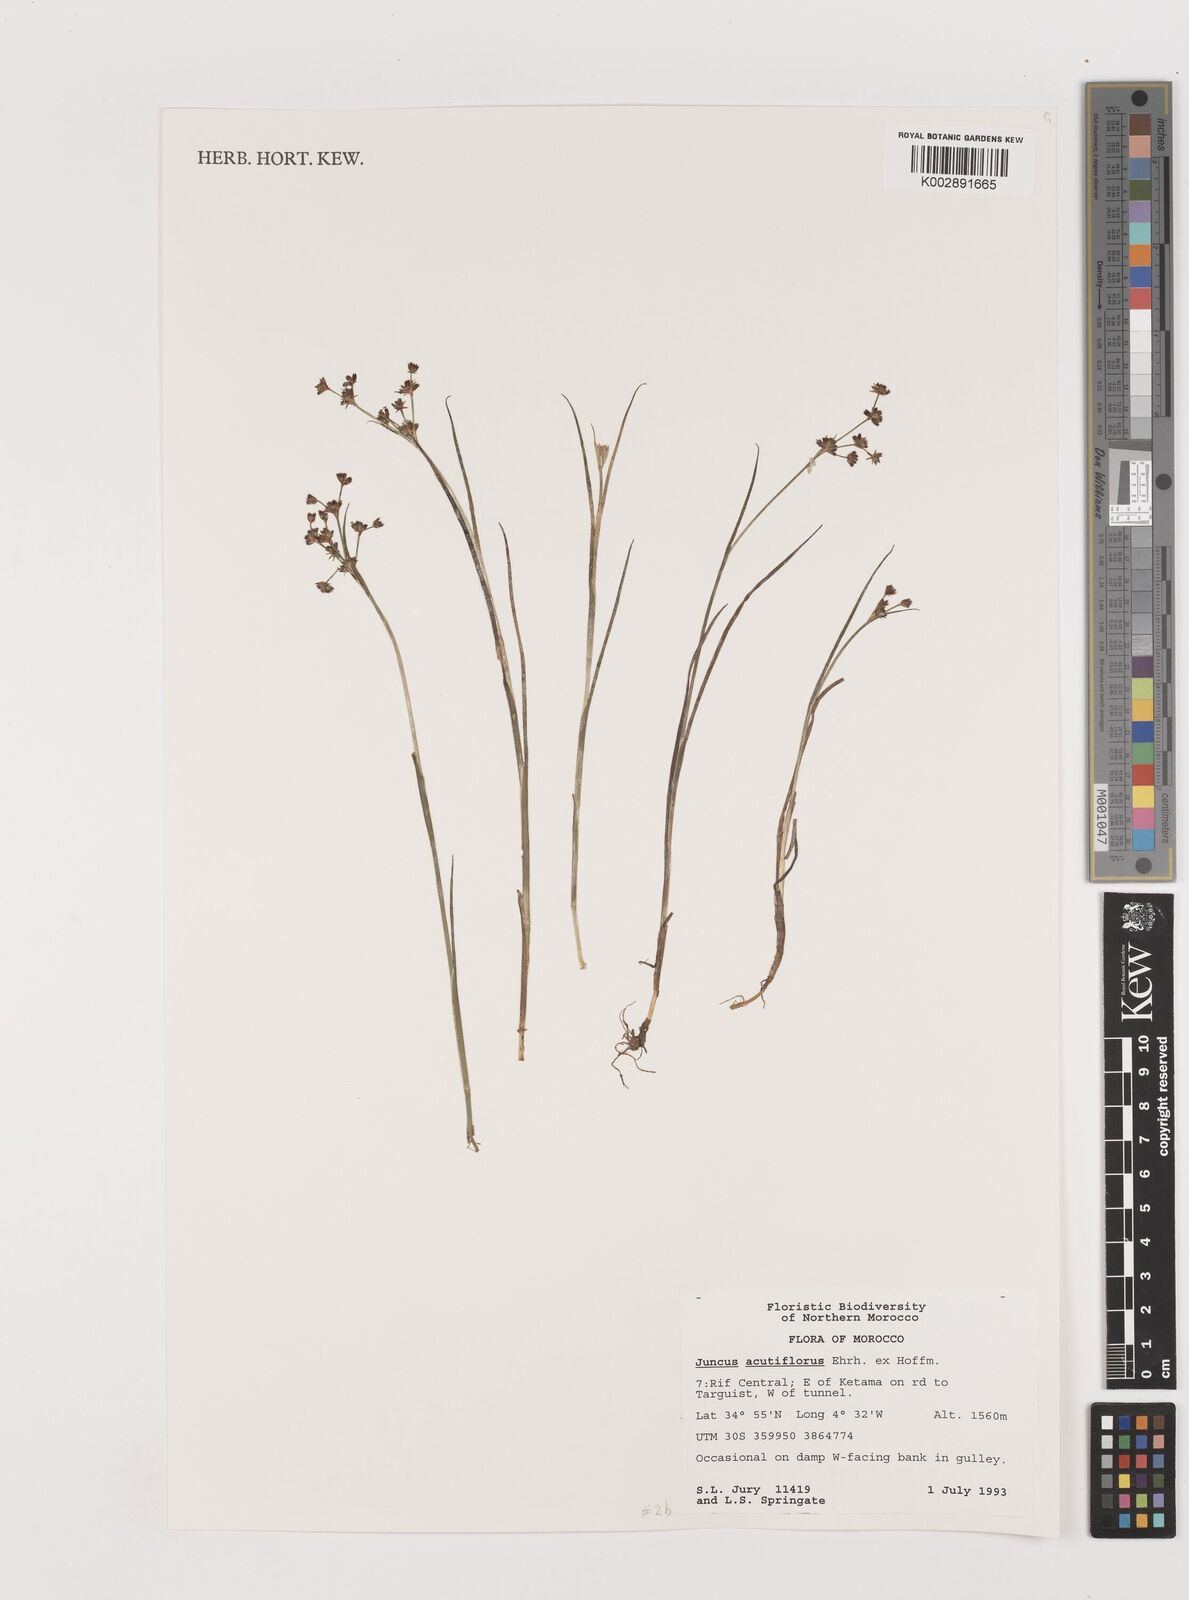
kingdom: Plantae
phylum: Tracheophyta
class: Liliopsida
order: Poales
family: Juncaceae
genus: Juncus
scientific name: Juncus acutiflorus
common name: Sharp-flowered rush
